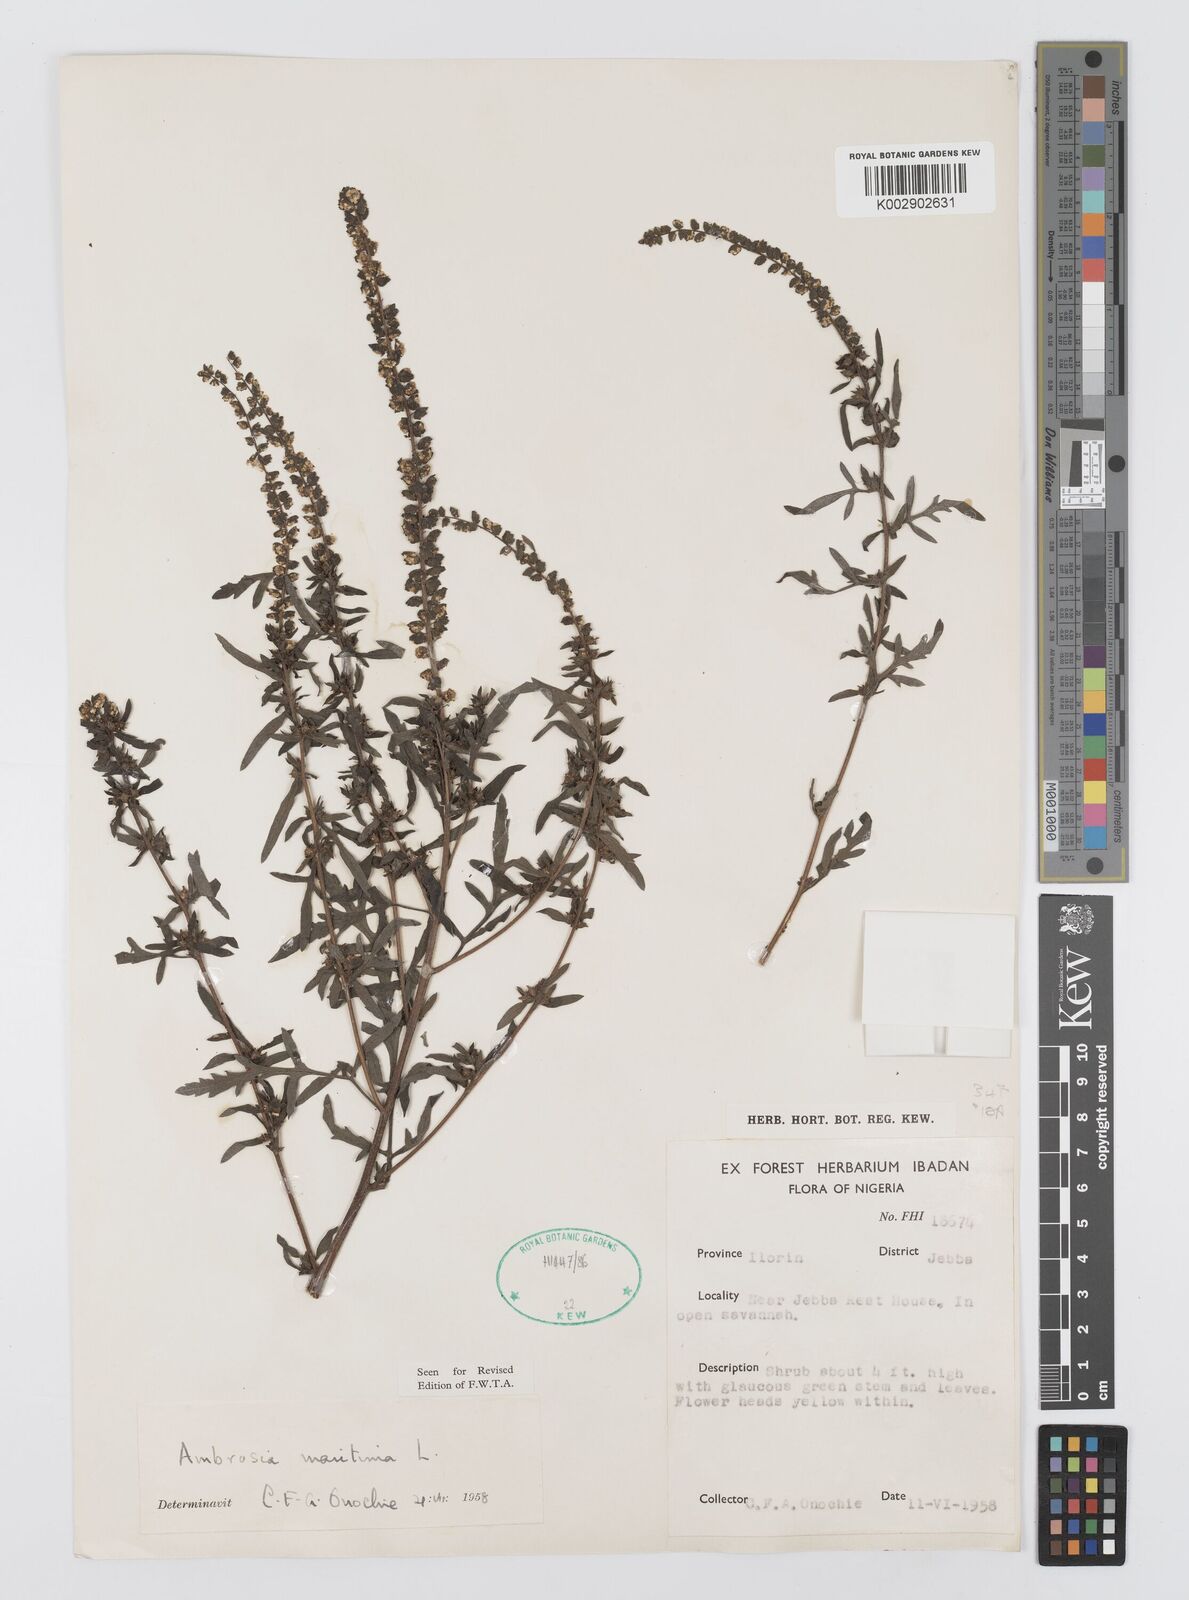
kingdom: Plantae
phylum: Tracheophyta
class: Magnoliopsida
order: Asterales
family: Asteraceae
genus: Ambrosia
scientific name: Ambrosia maritima
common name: Sea ambrosia
